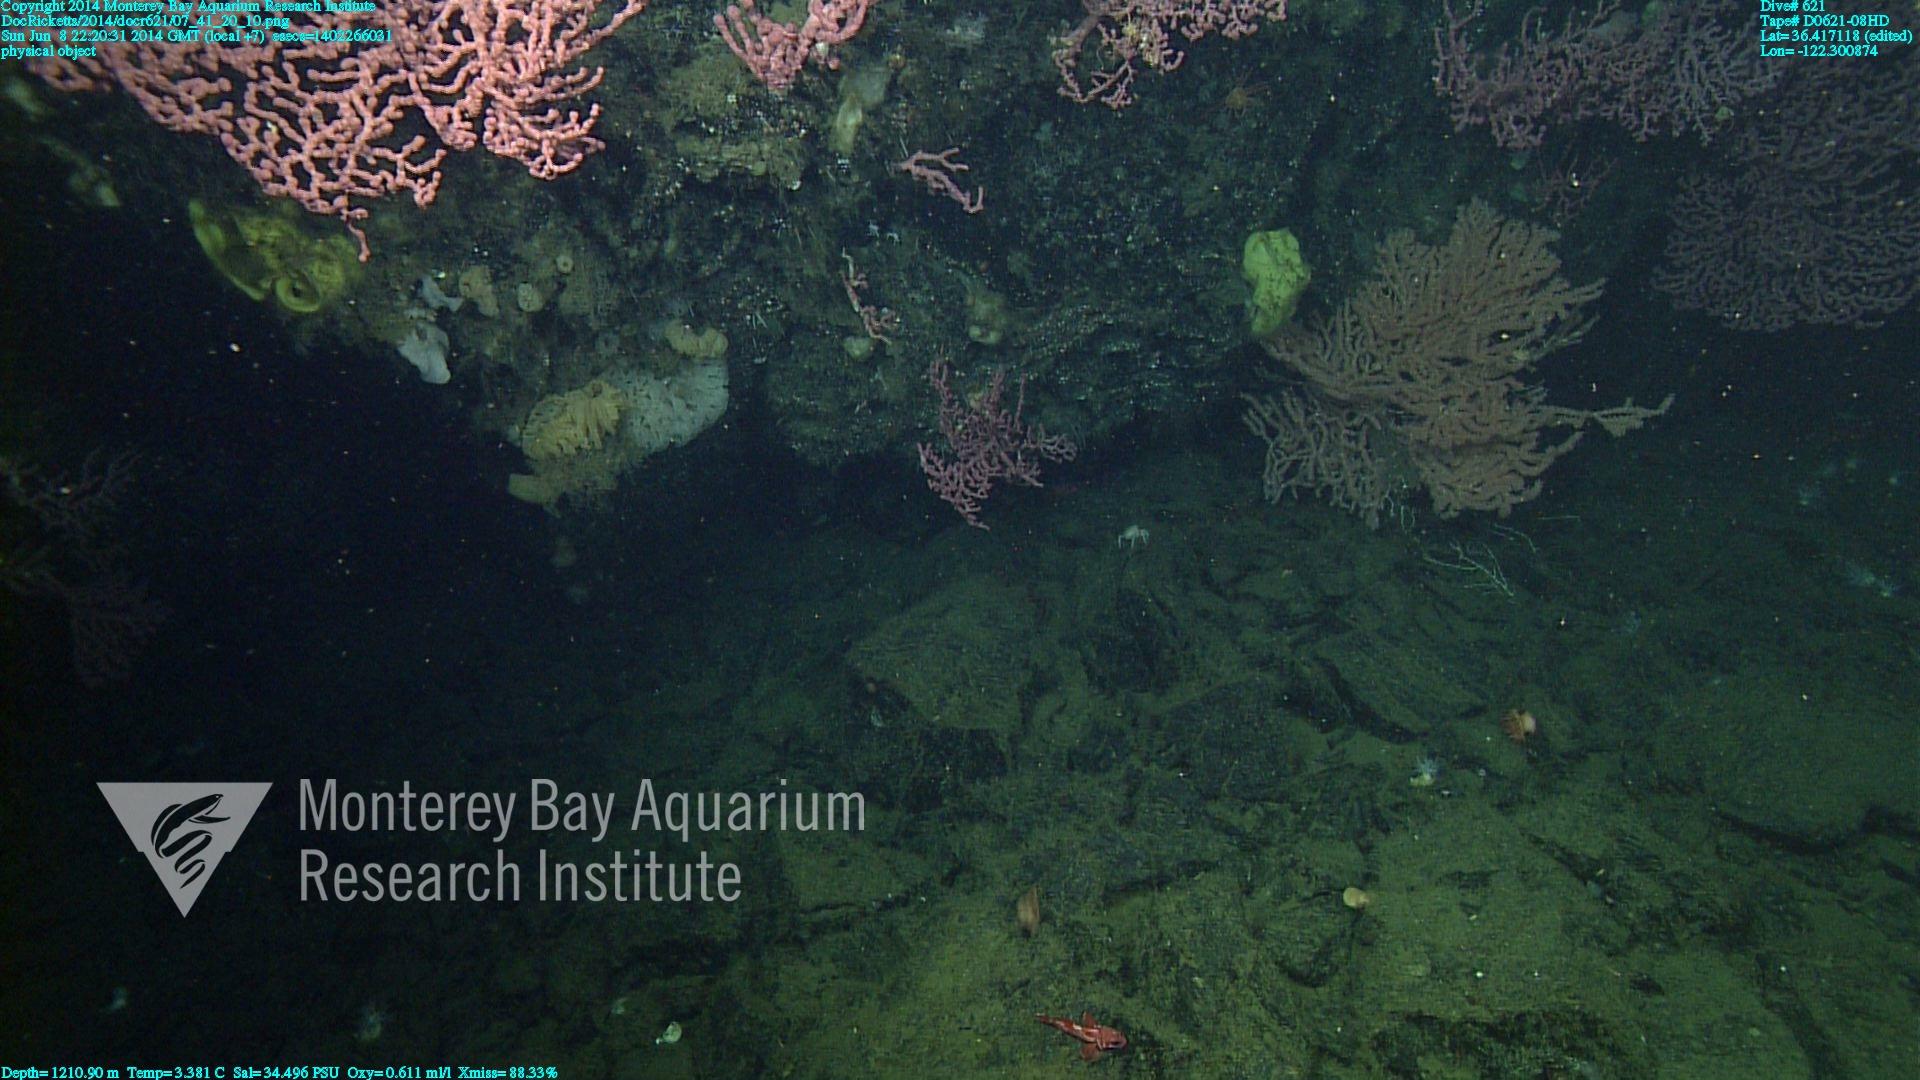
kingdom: Animalia
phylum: Cnidaria
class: Anthozoa
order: Scleralcyonacea
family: Coralliidae
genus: Paragorgia
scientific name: Paragorgia arborea
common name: Bubble gum coral
